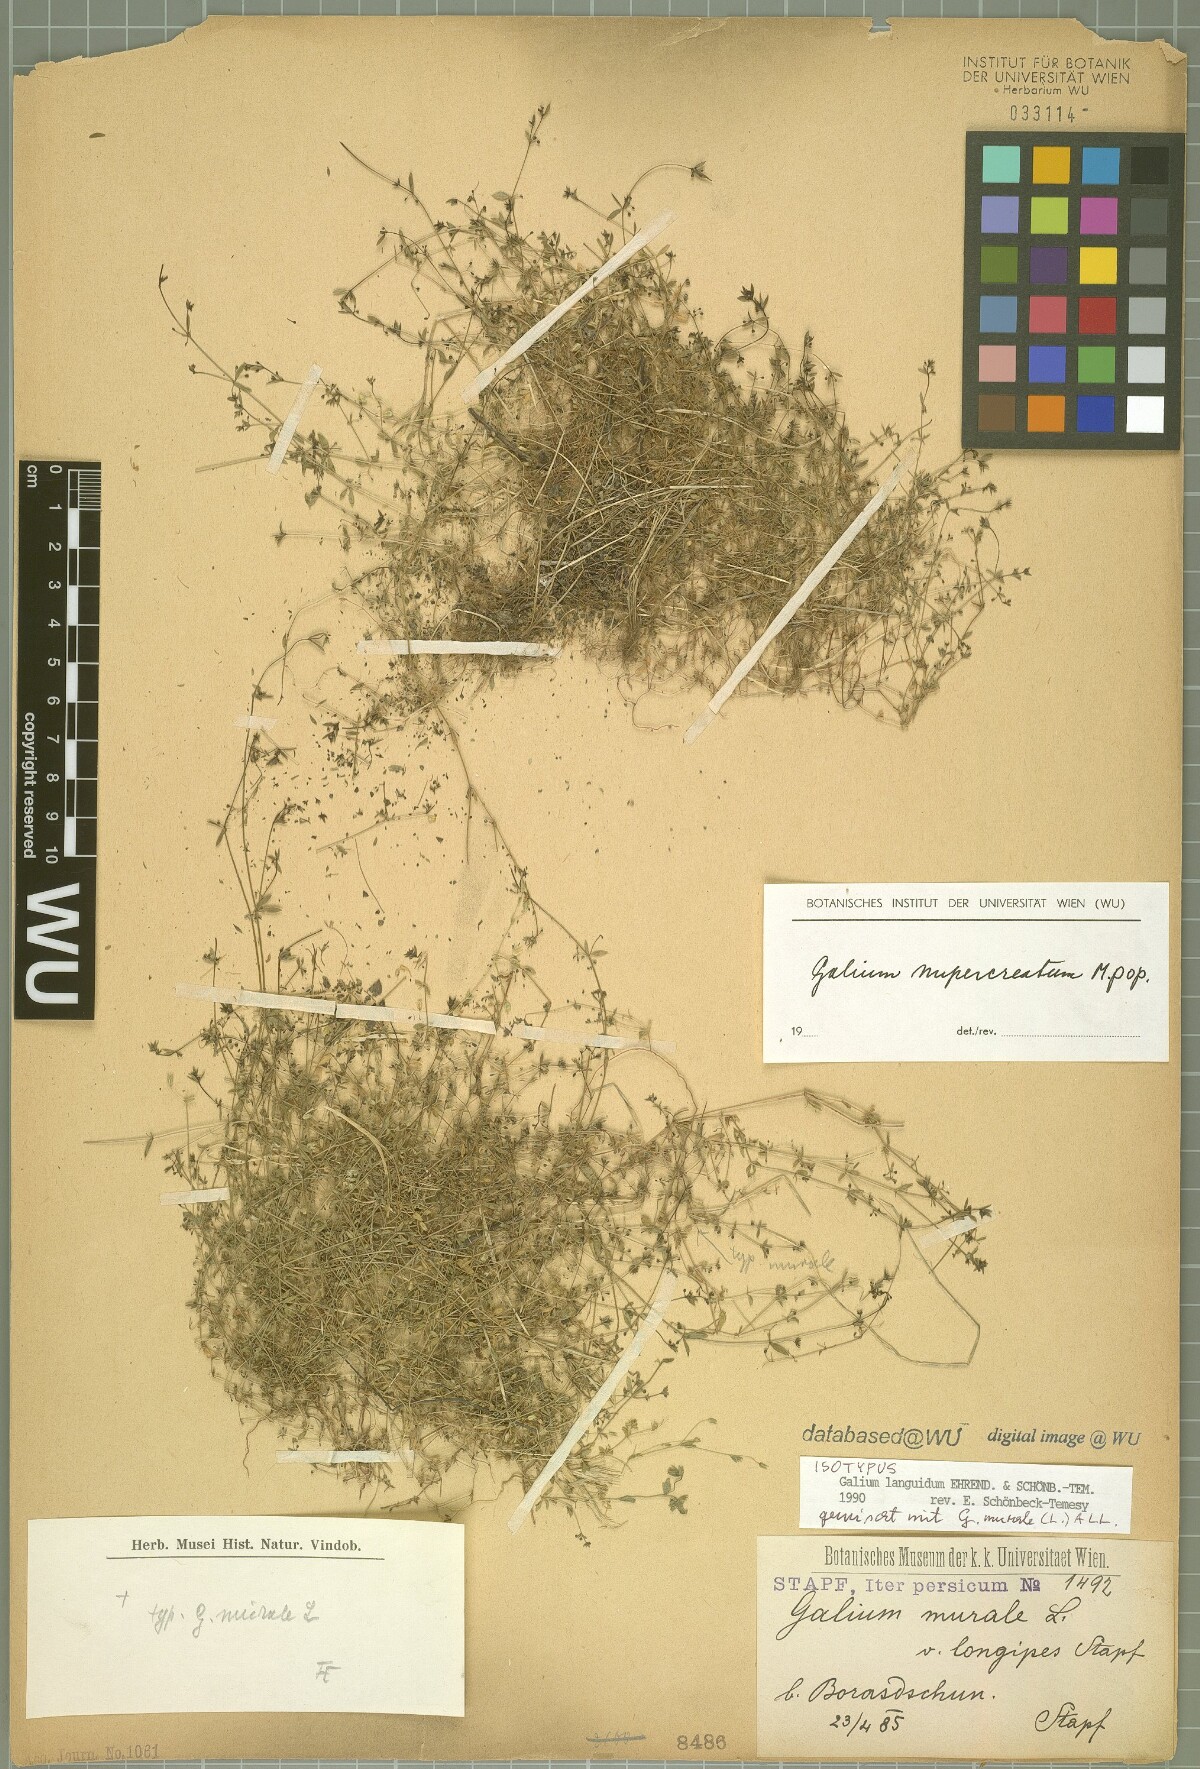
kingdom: Plantae
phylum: Tracheophyta
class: Magnoliopsida
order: Gentianales
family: Rubiaceae
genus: Galium
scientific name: Galium nupercreatum
